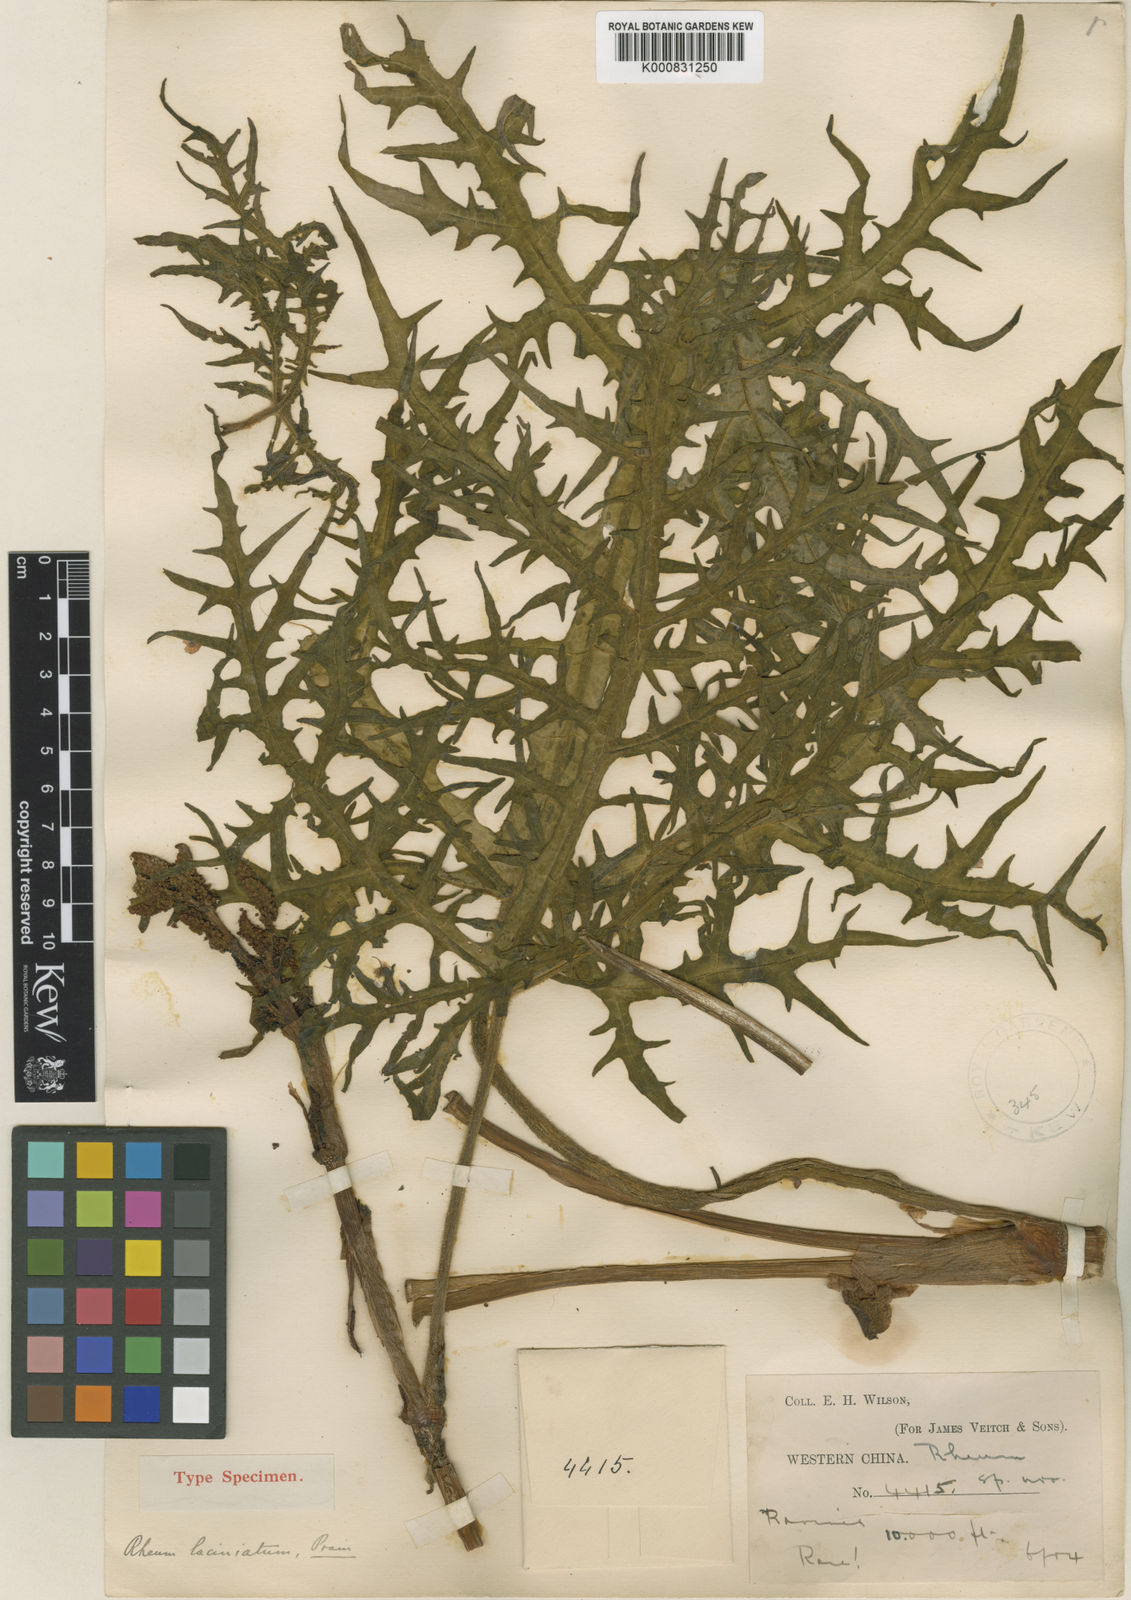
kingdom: Plantae
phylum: Tracheophyta
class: Magnoliopsida
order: Caryophyllales
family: Polygonaceae
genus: Rheum
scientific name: Rheum laciniatum
